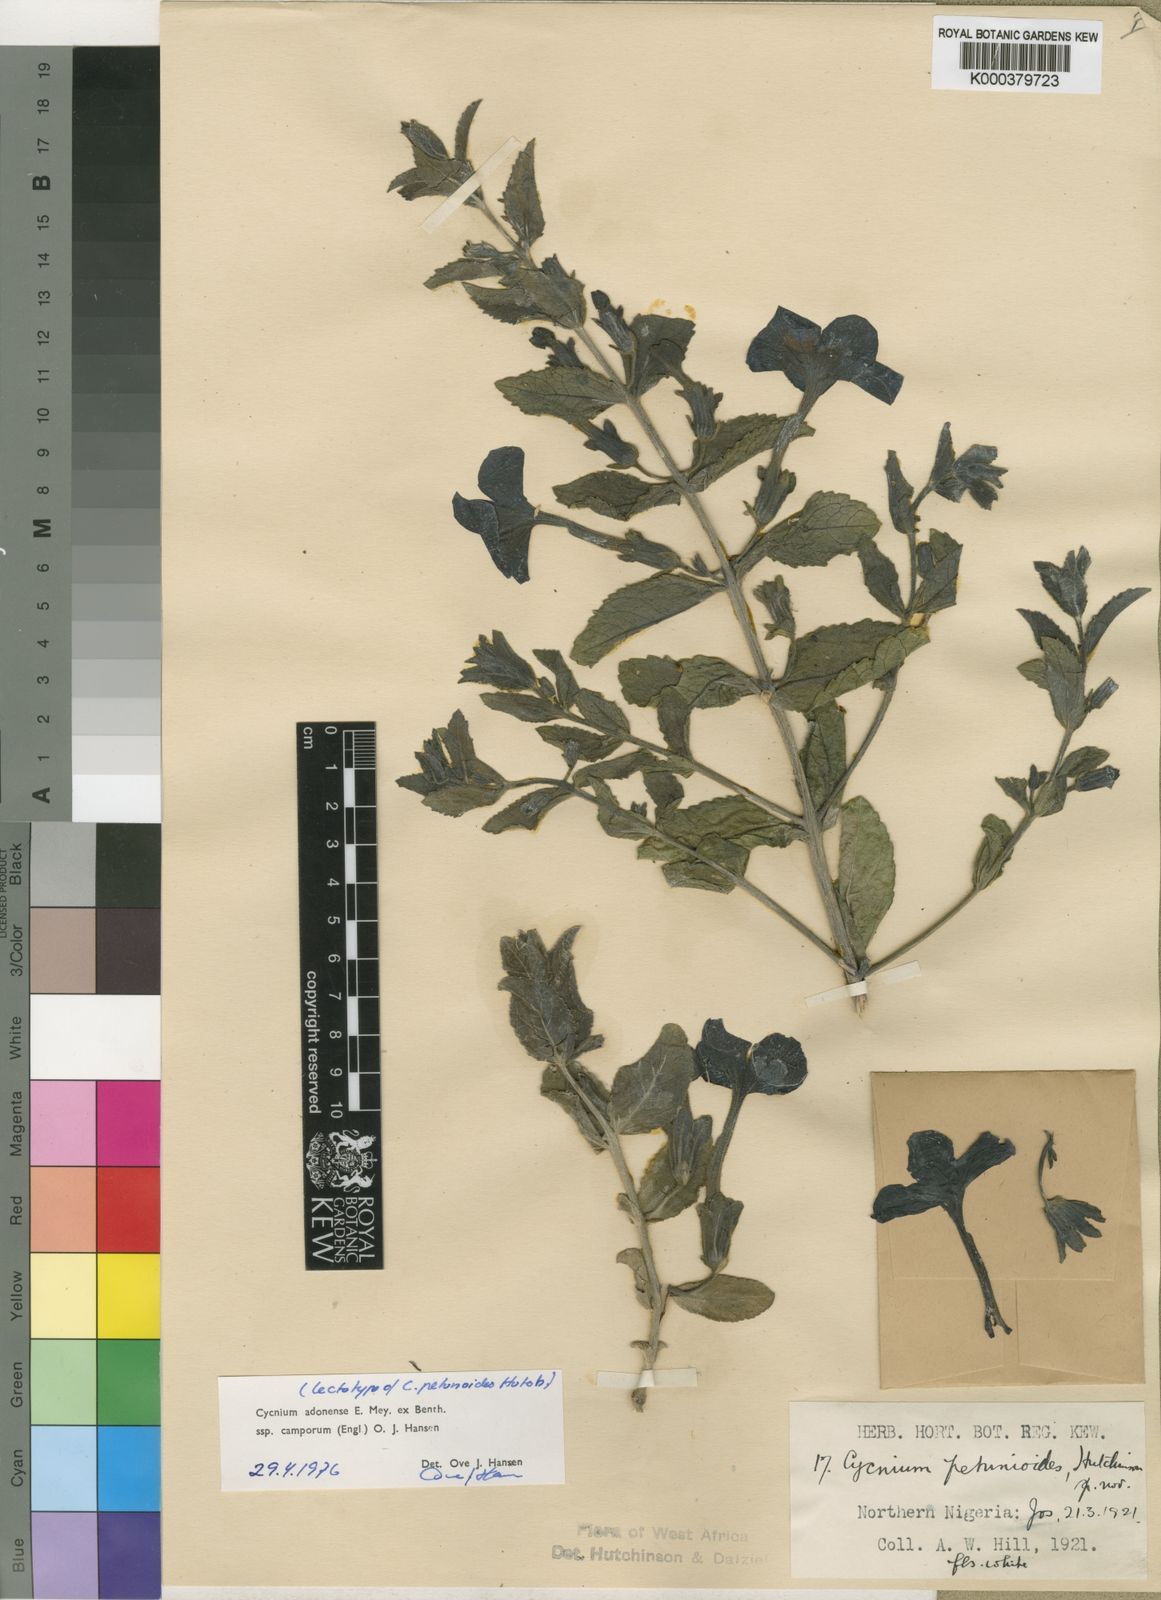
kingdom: Plantae
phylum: Tracheophyta
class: Magnoliopsida
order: Lamiales
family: Orobanchaceae
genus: Cycnium
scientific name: Cycnium adoense
